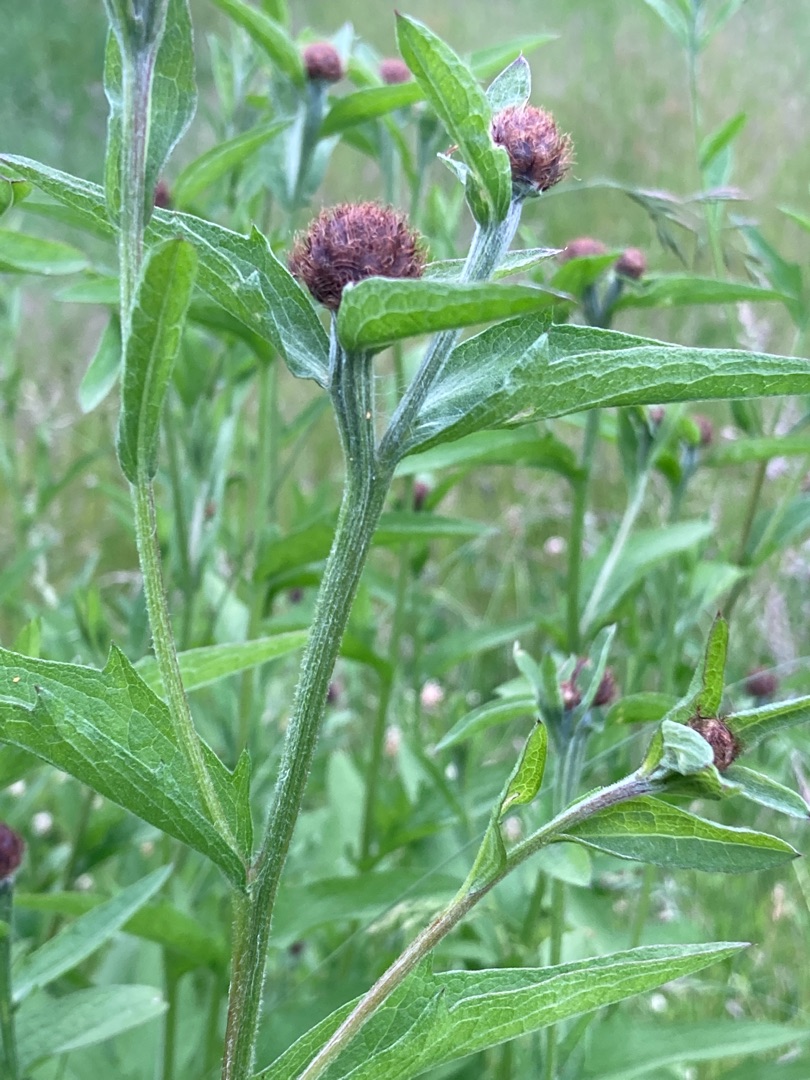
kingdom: Plantae
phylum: Tracheophyta
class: Magnoliopsida
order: Asterales
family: Asteraceae
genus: Centaurea
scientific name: Centaurea nigra
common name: Sorthoved-knopurt
